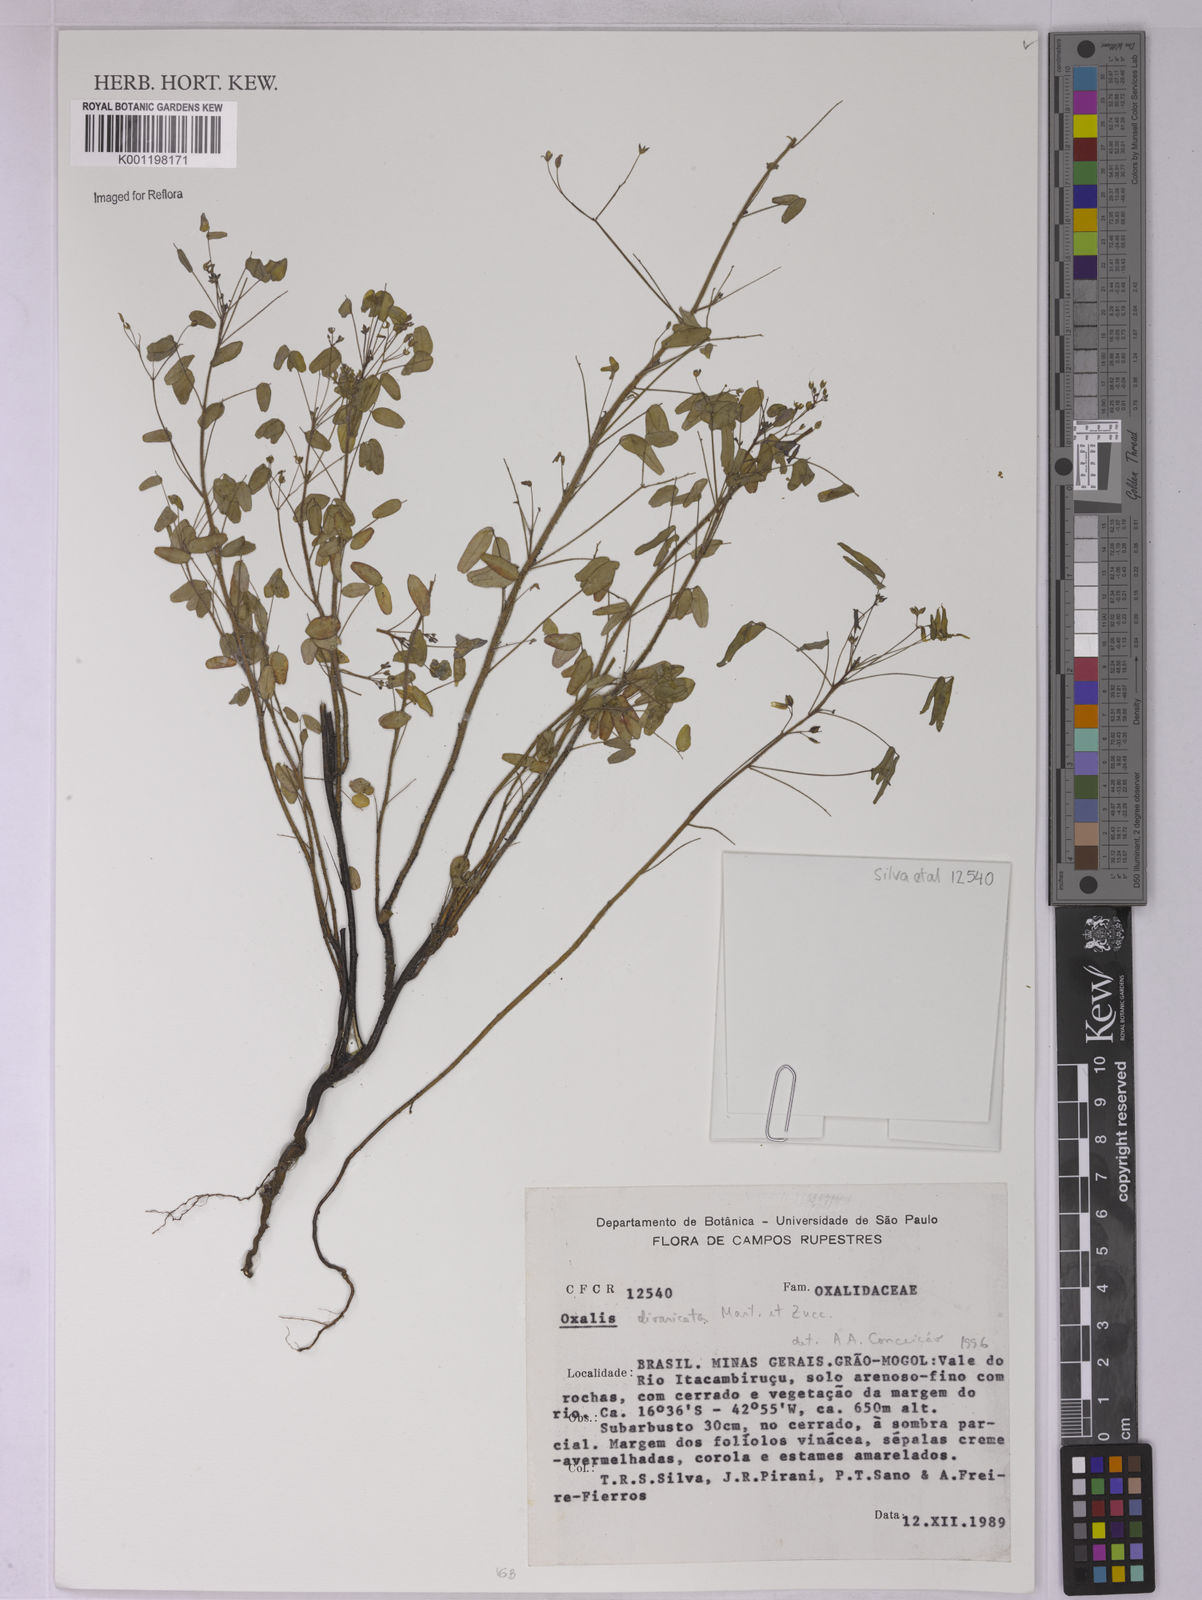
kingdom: Plantae
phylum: Tracheophyta
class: Magnoliopsida
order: Oxalidales
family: Oxalidaceae
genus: Oxalis
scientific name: Oxalis divaricata
